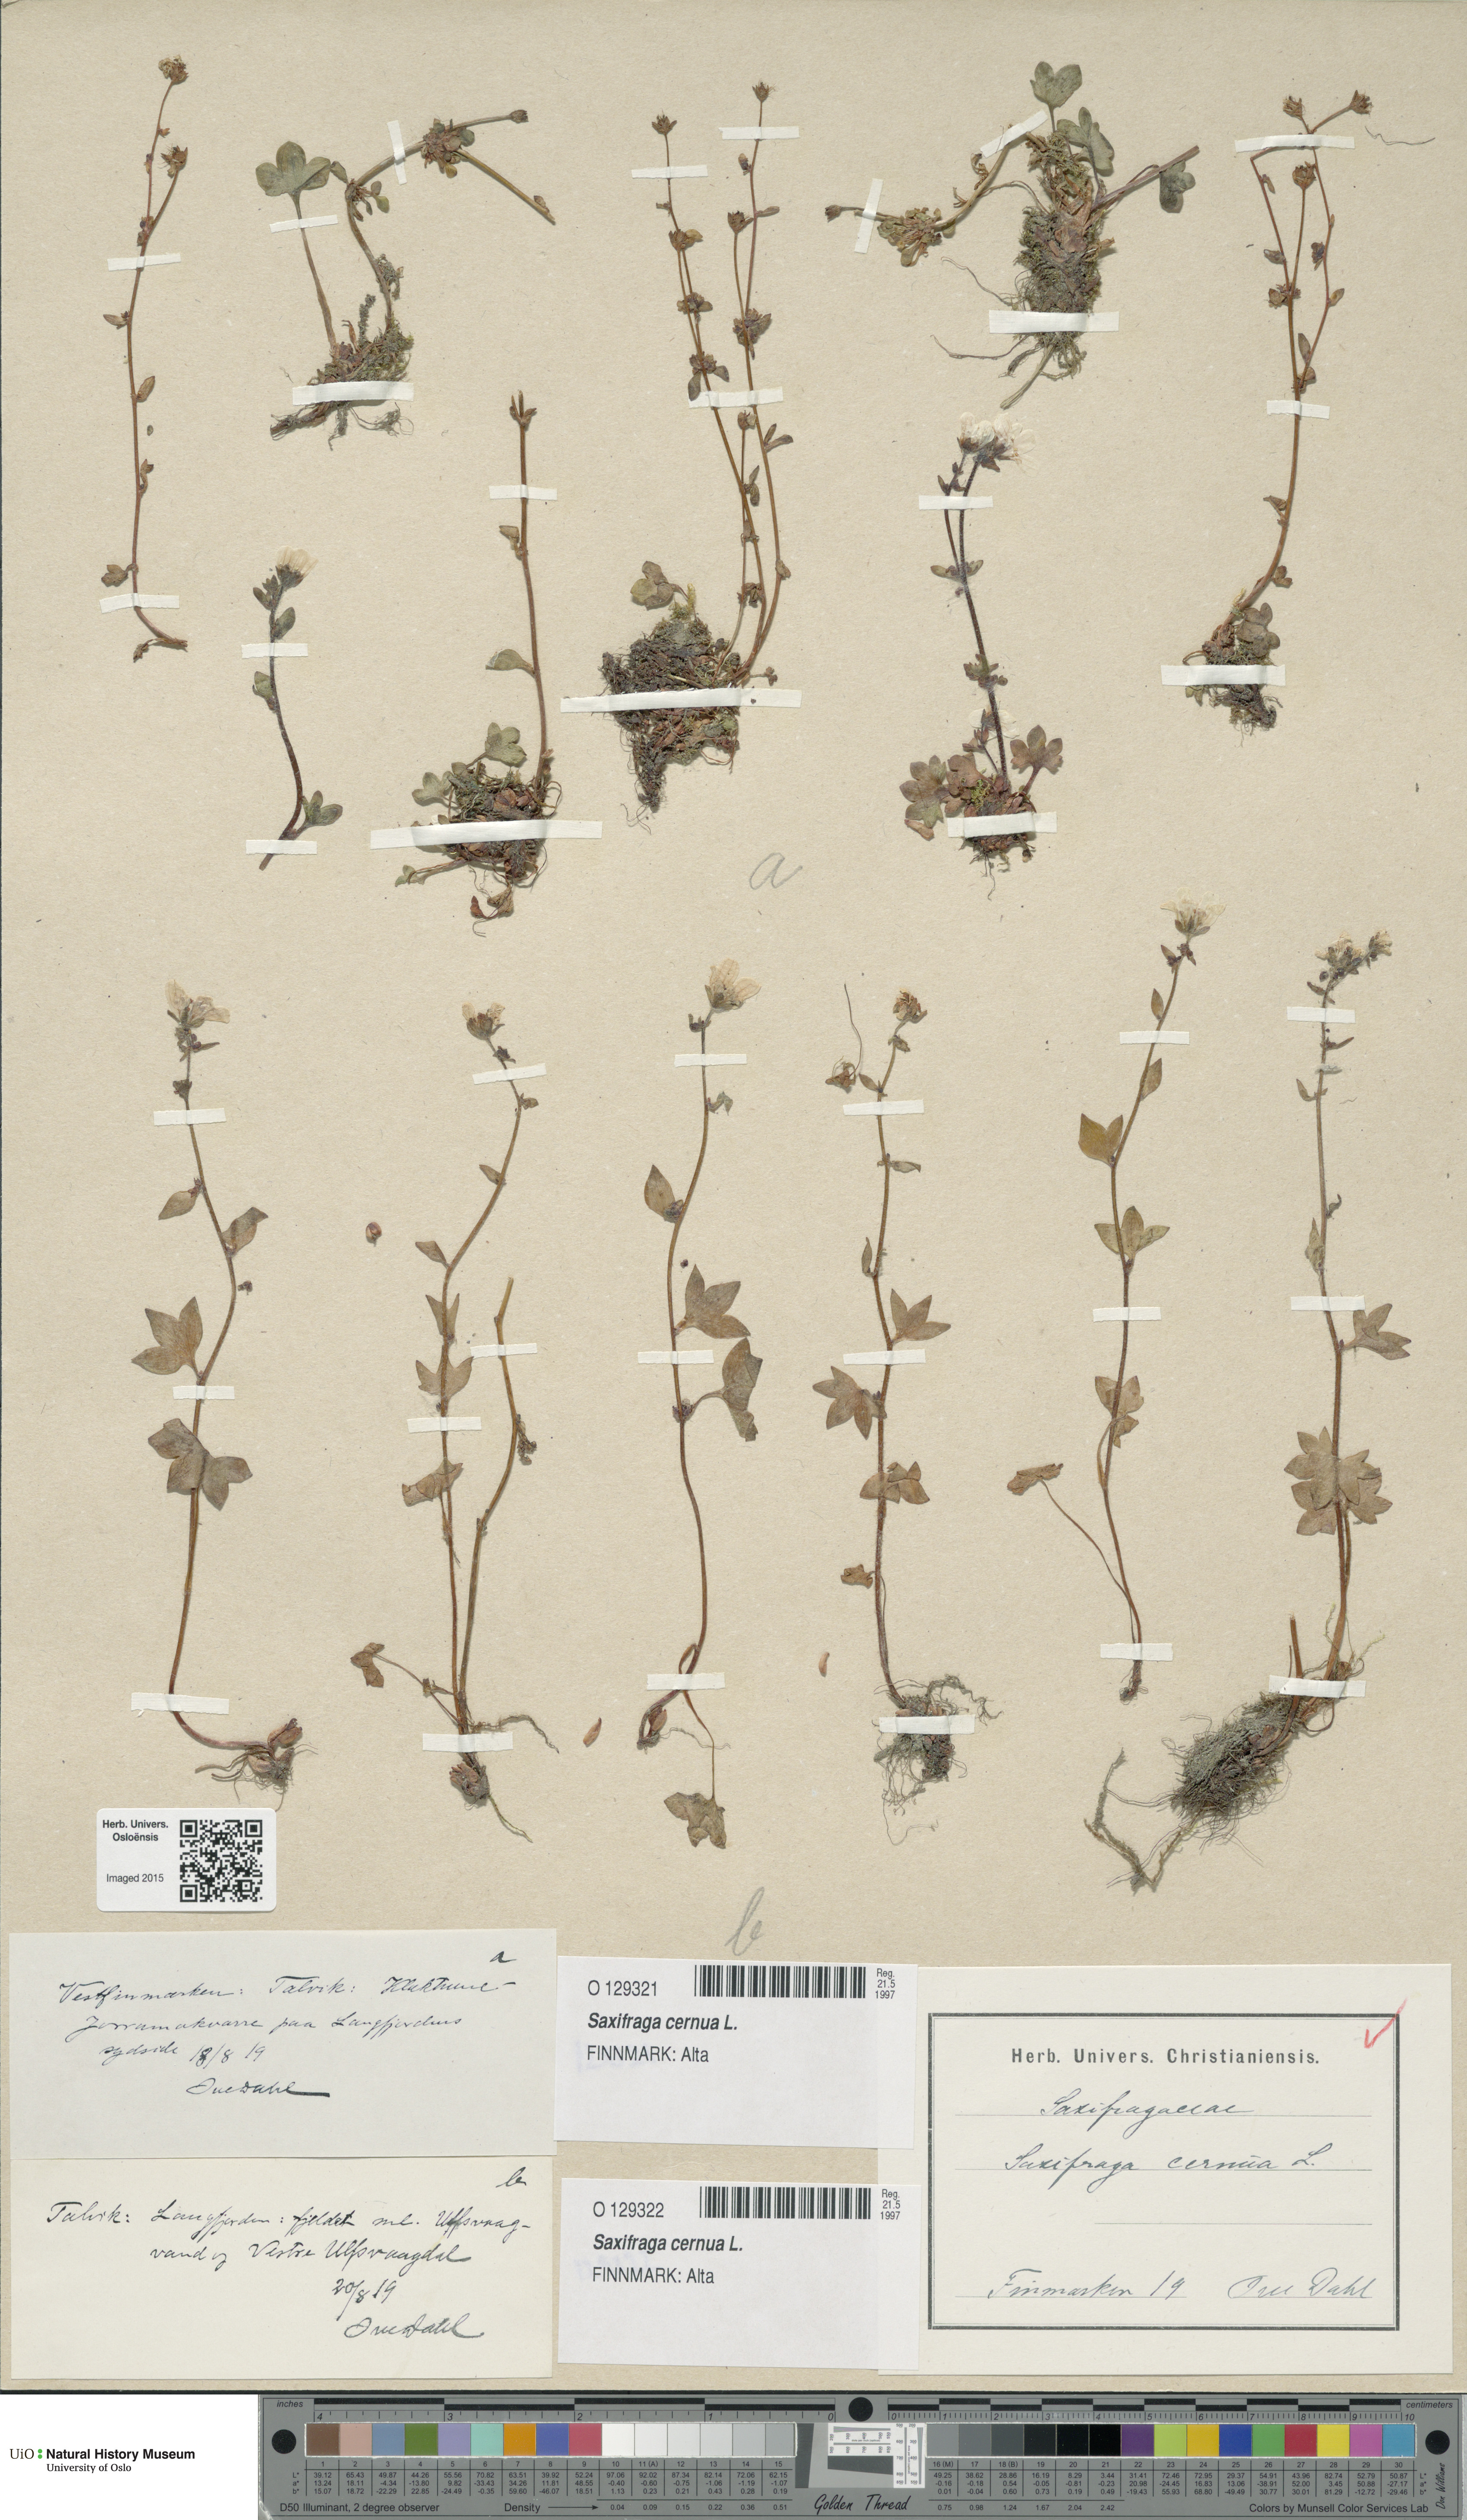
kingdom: Plantae
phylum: Tracheophyta
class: Magnoliopsida
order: Saxifragales
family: Saxifragaceae
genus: Saxifraga
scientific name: Saxifraga cernua
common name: Drooping saxifrage
